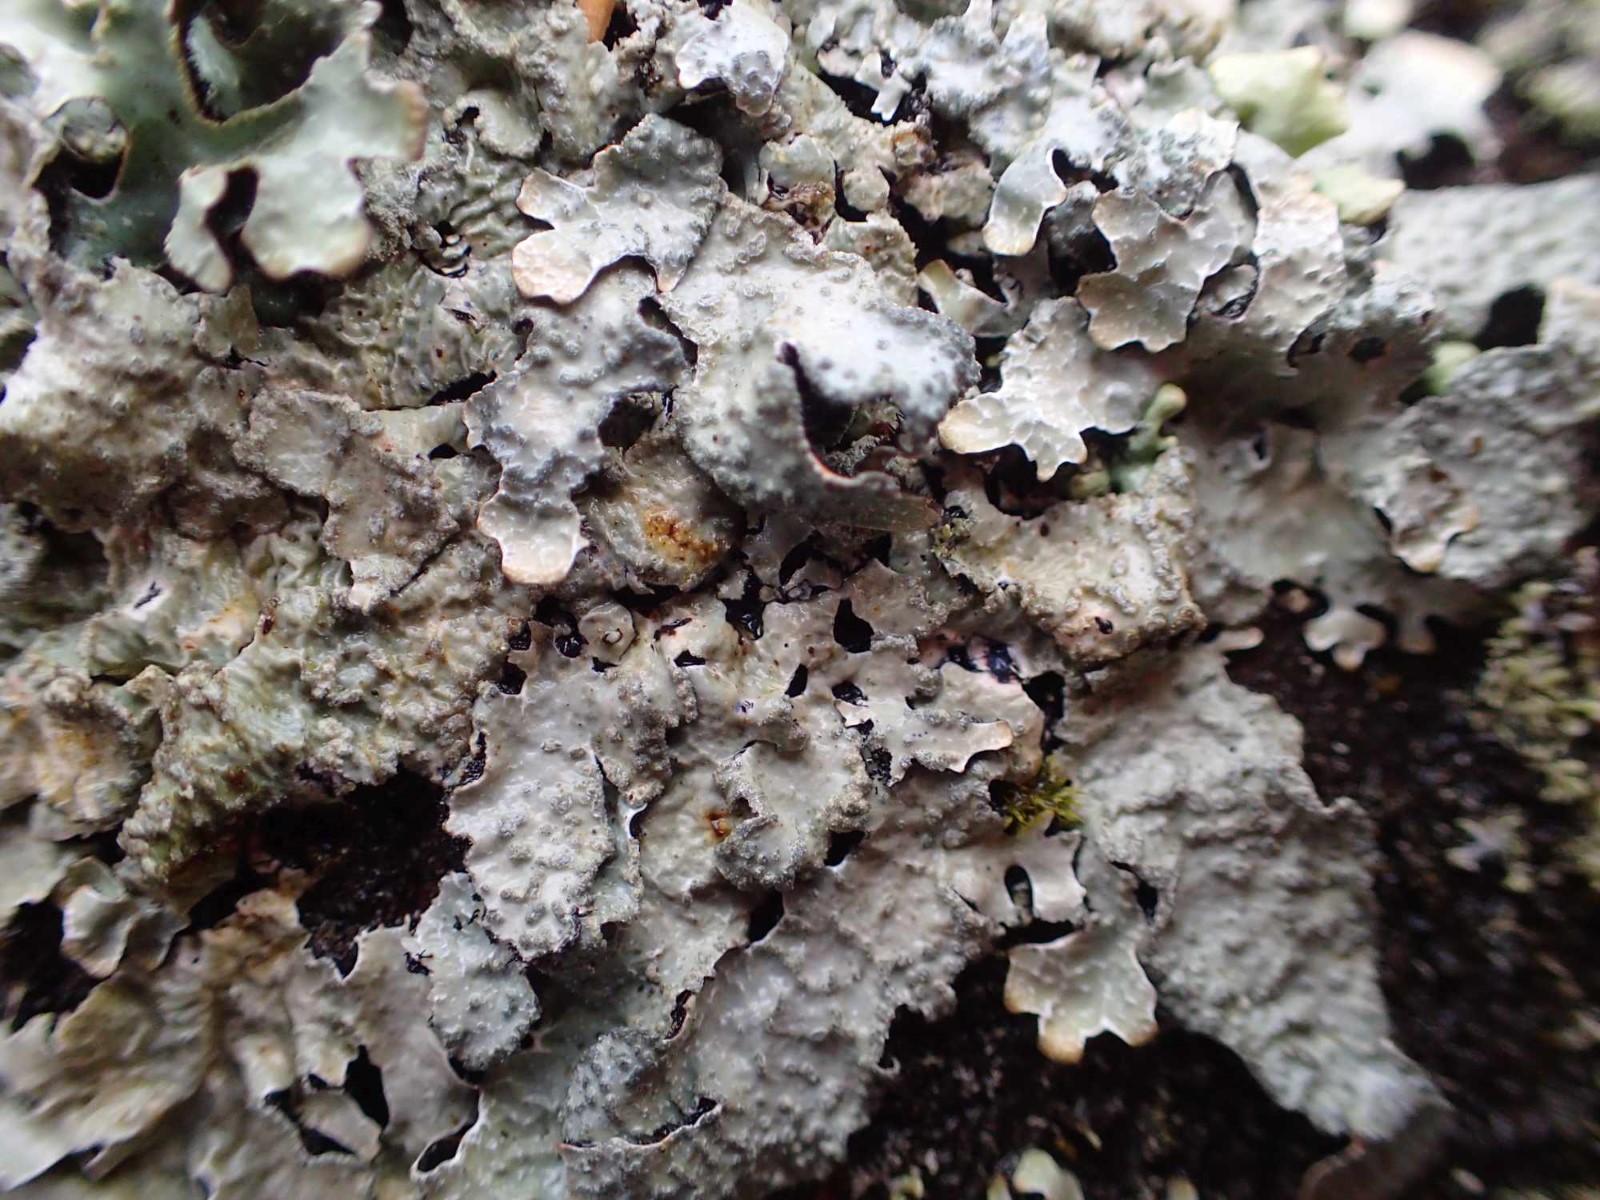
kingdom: Fungi
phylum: Ascomycota
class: Lecanoromycetes
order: Lecanorales
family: Parmeliaceae
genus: Parmelia
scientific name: Parmelia sulcata
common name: rynket skållav
